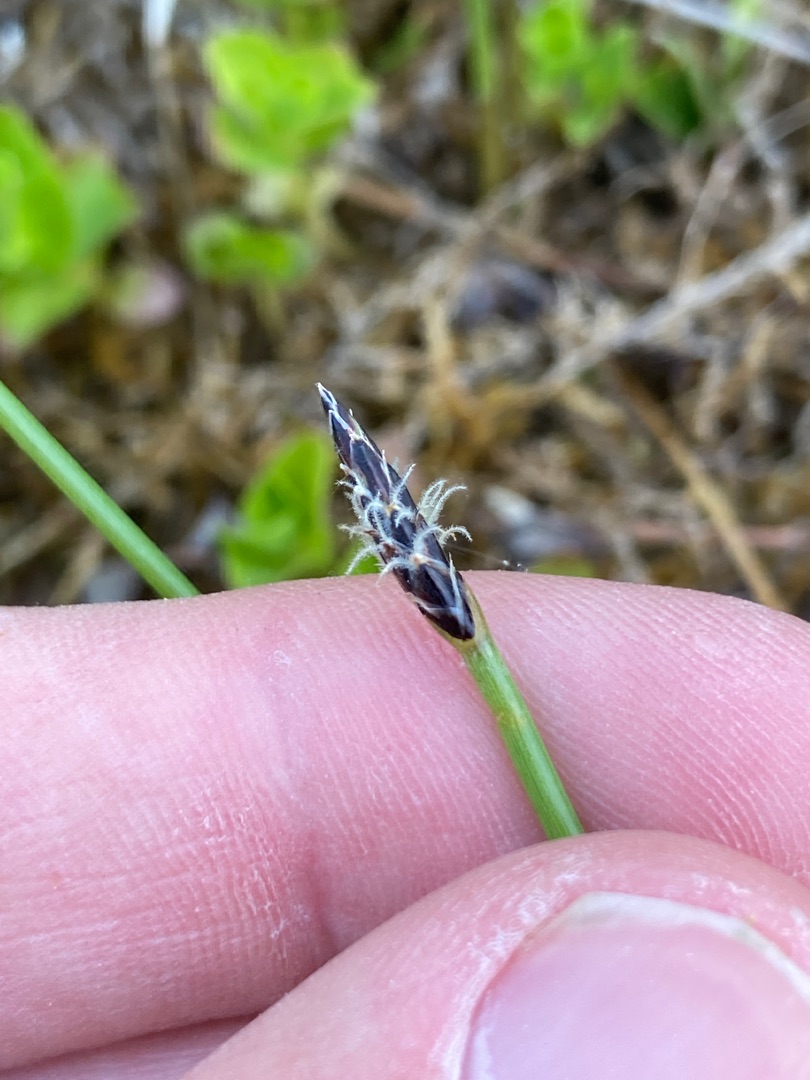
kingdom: Plantae
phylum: Tracheophyta
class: Liliopsida
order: Poales
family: Cyperaceae
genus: Eleocharis
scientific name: Eleocharis palustris
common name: Almindelig sumpstrå
